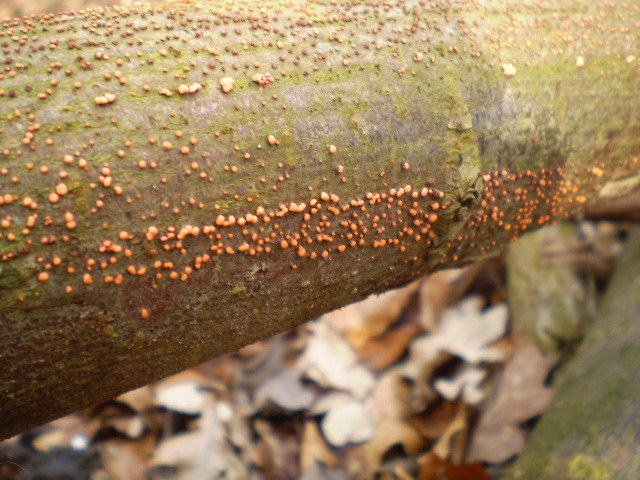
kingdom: Fungi
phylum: Ascomycota
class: Sordariomycetes
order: Hypocreales
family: Nectriaceae
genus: Nectria
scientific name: Nectria cinnabarina
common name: almindelig cinnobersvamp
